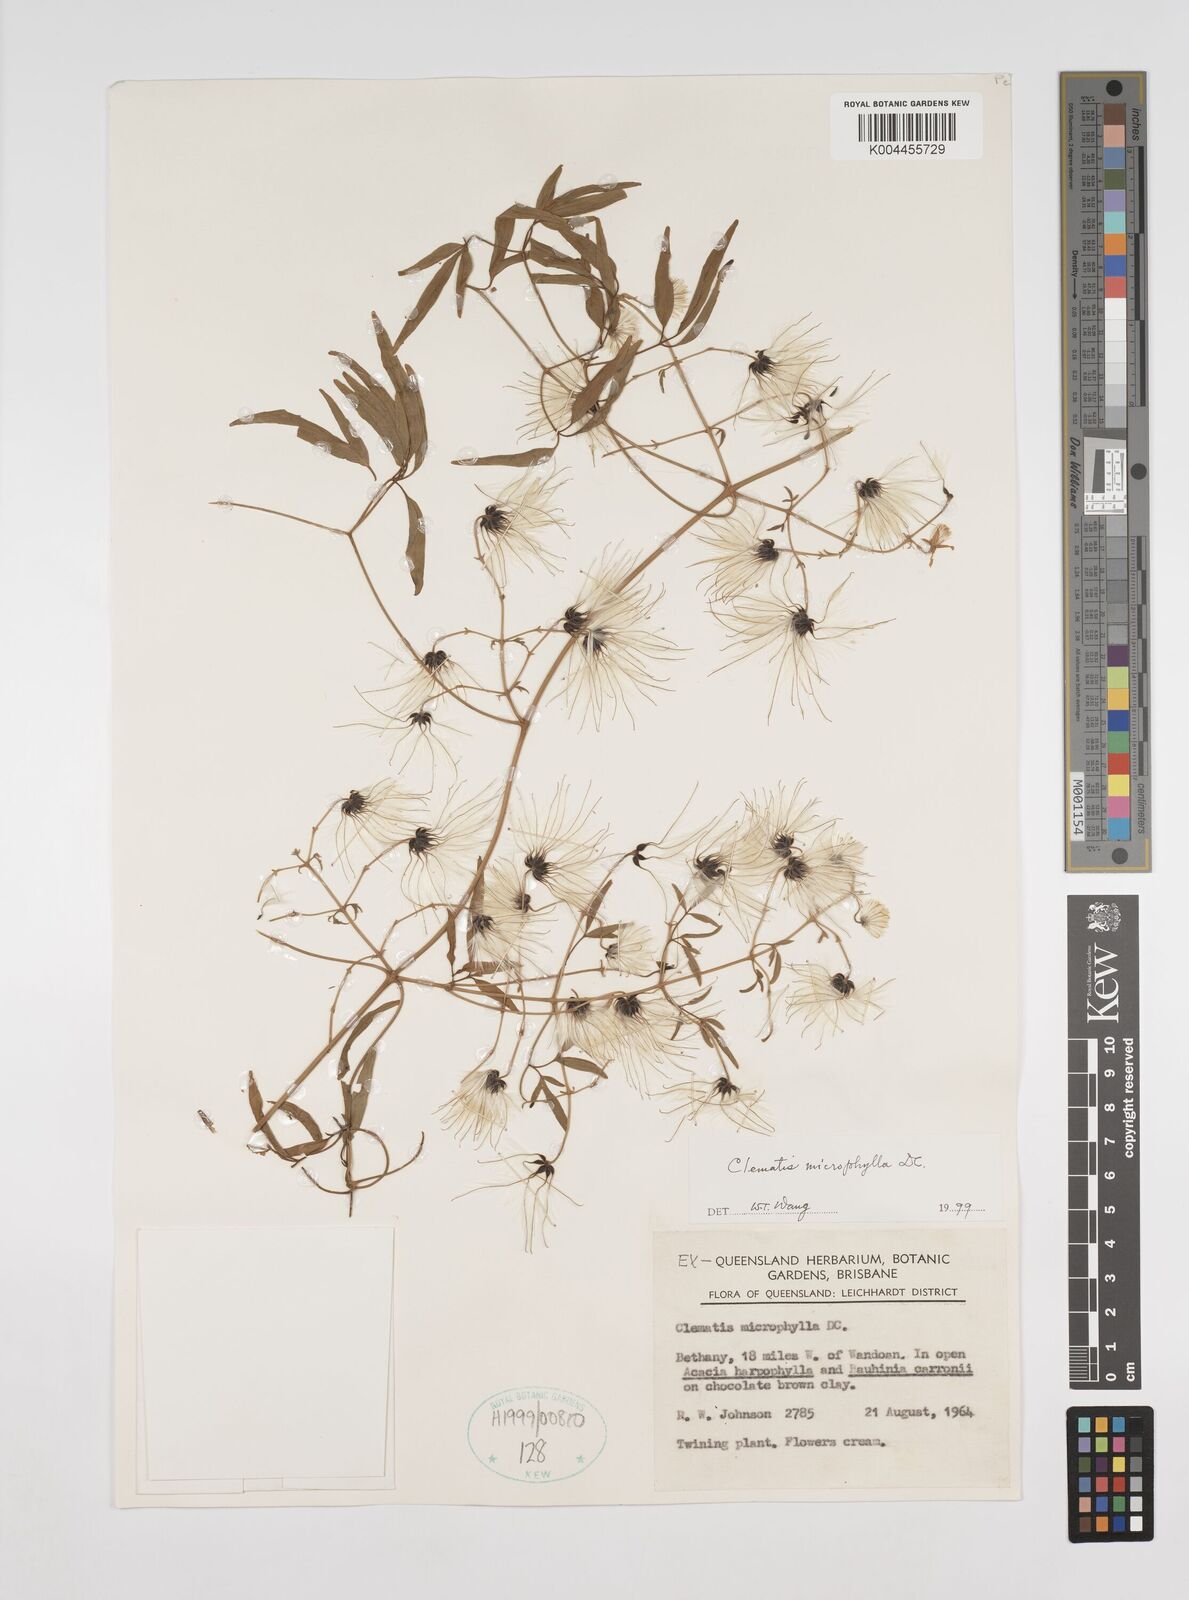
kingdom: Plantae
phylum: Tracheophyta
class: Magnoliopsida
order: Ranunculales
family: Ranunculaceae
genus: Clematis
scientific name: Clematis microphylla
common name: Headachevine
